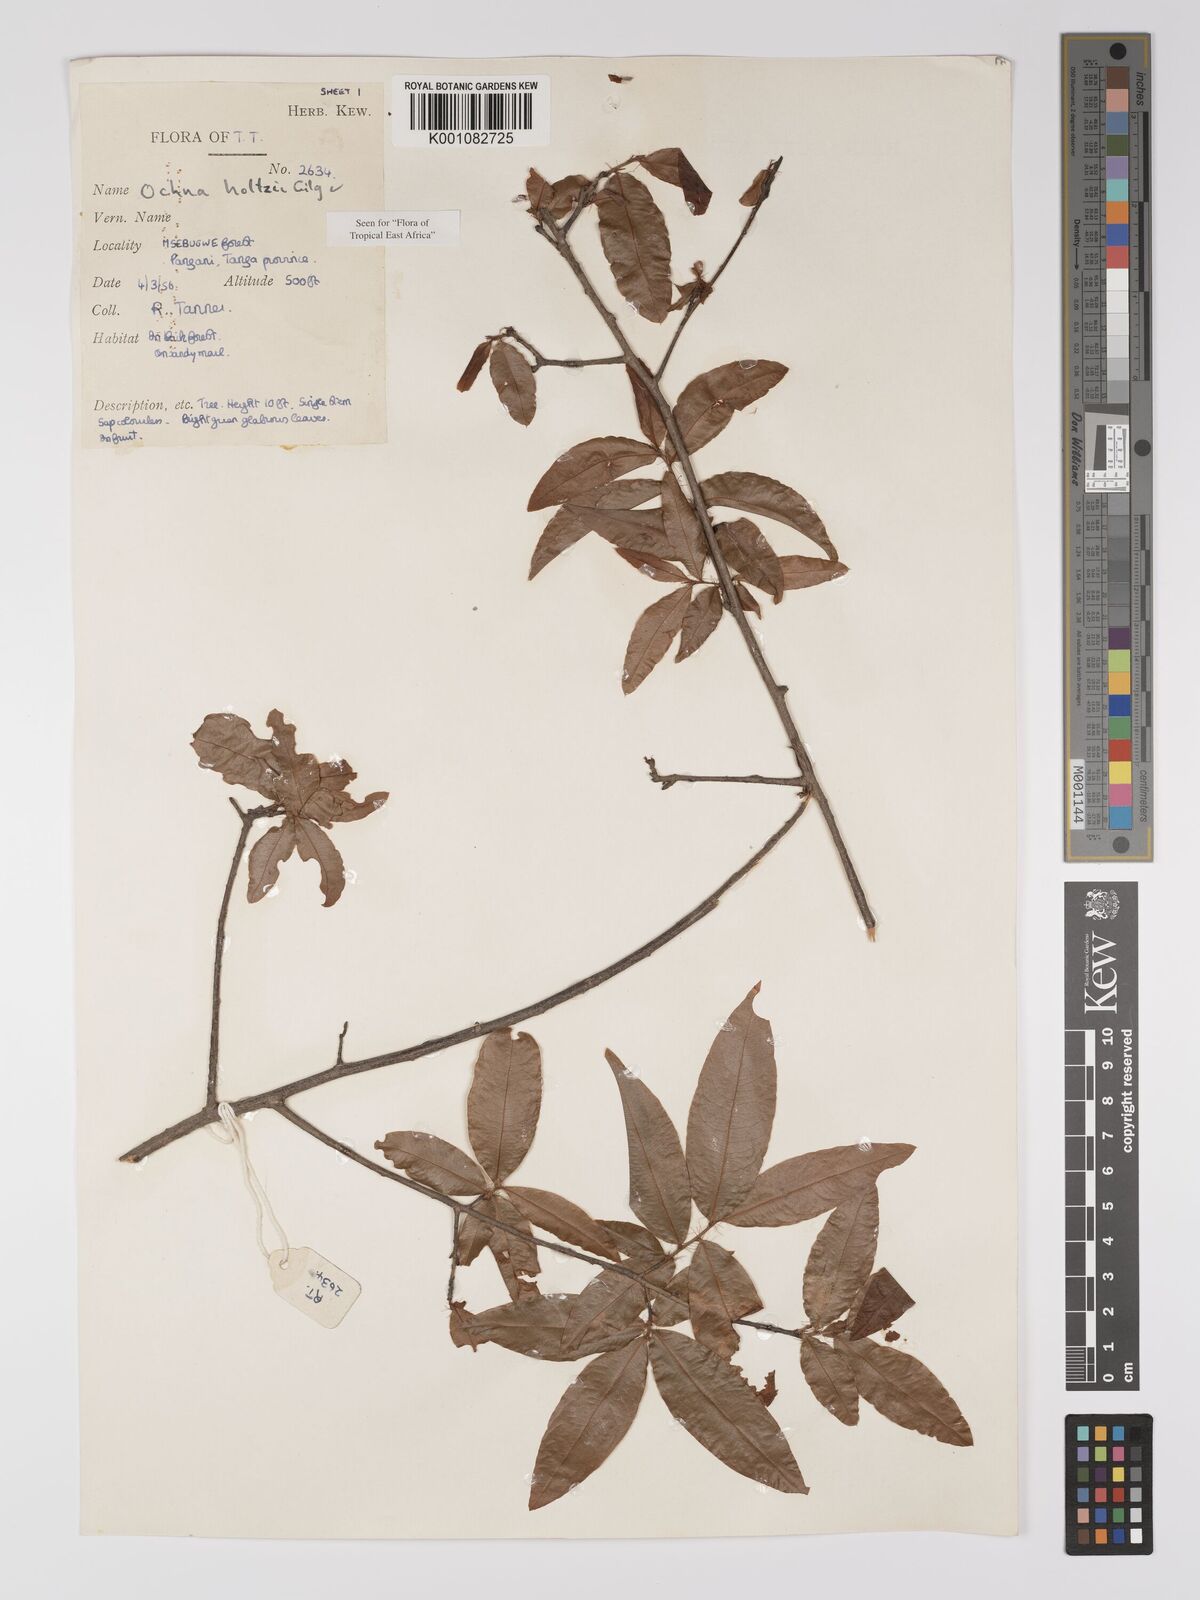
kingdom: Plantae
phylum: Tracheophyta
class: Magnoliopsida
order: Malpighiales
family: Ochnaceae
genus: Ochna
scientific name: Ochna holtzii
